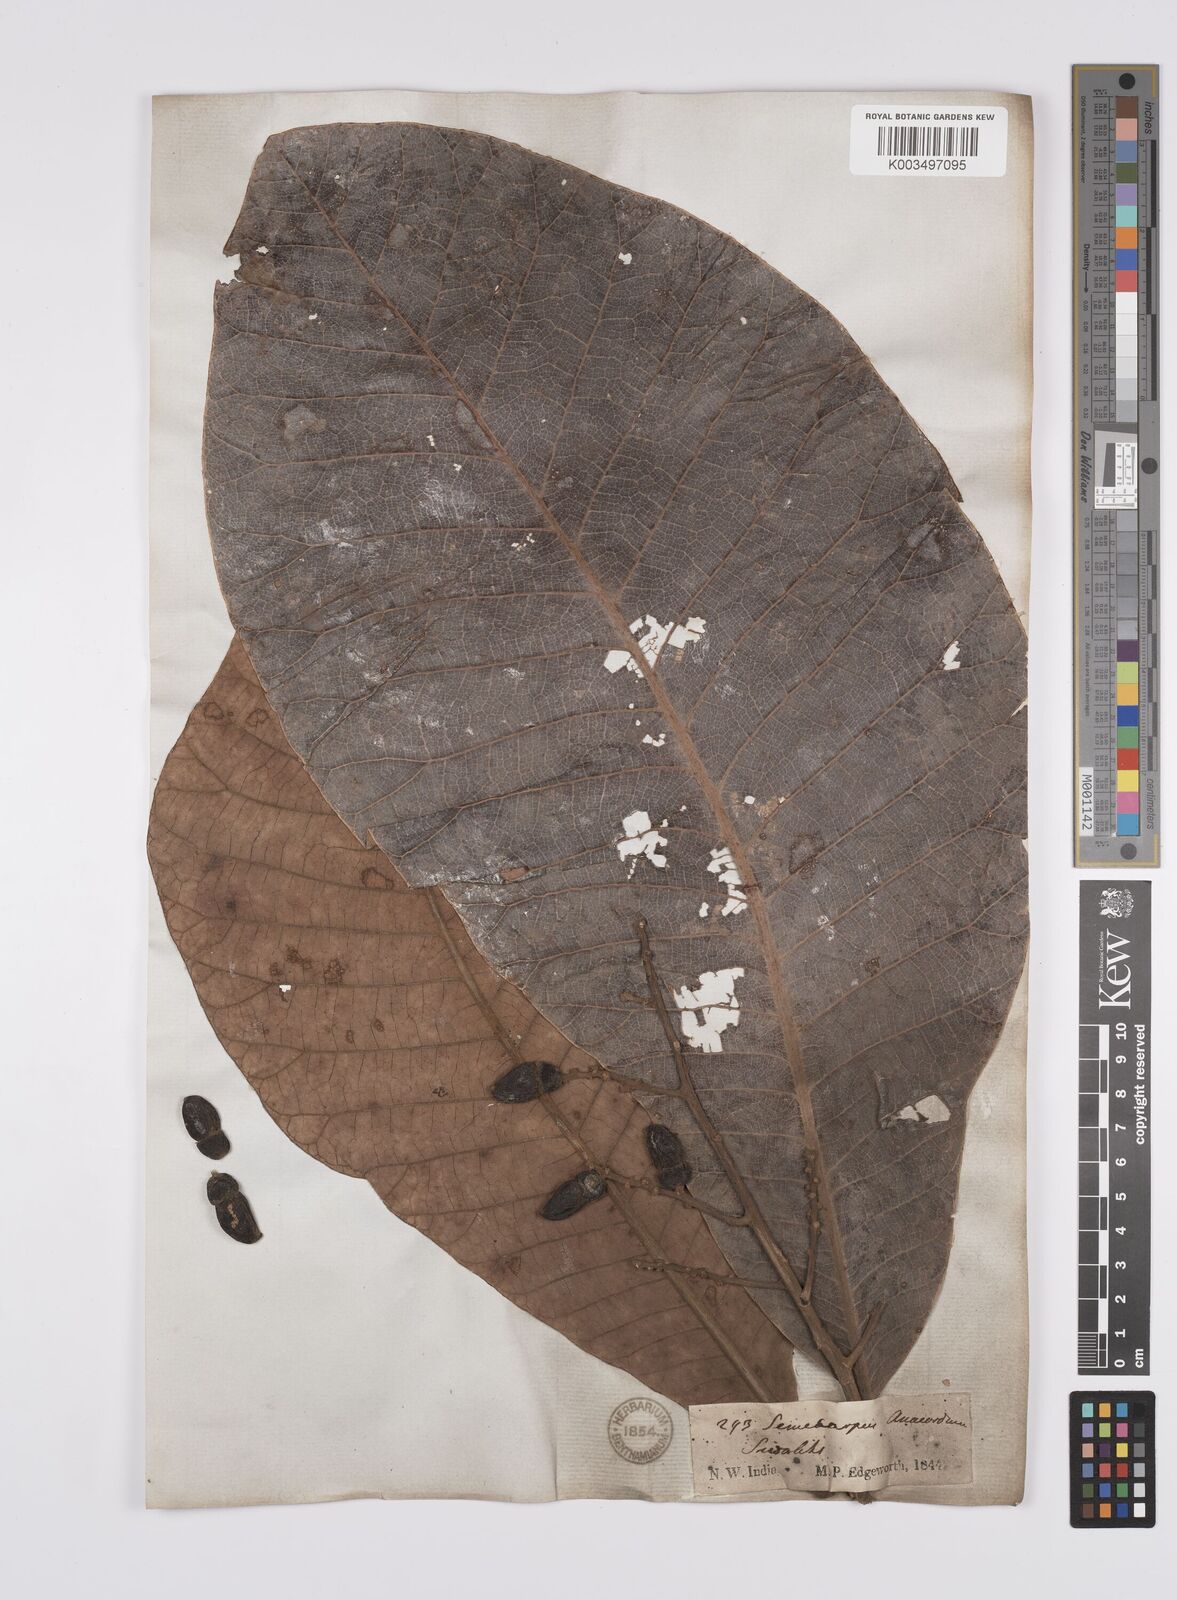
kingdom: Plantae
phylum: Tracheophyta
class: Magnoliopsida
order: Sapindales
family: Anacardiaceae
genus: Semecarpus
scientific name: Semecarpus anacardium
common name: Marking nut-tree
